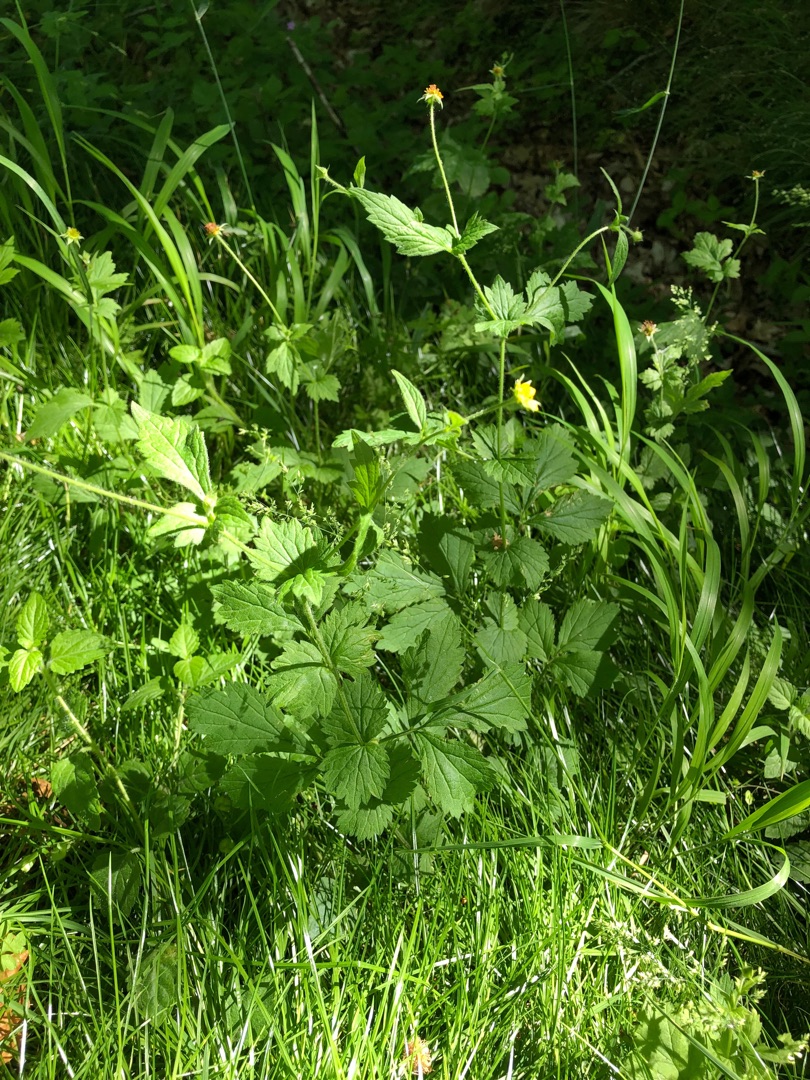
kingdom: Plantae
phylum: Tracheophyta
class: Magnoliopsida
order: Rosales
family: Rosaceae
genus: Geum
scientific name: Geum urbanum
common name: Feber-nellikerod
